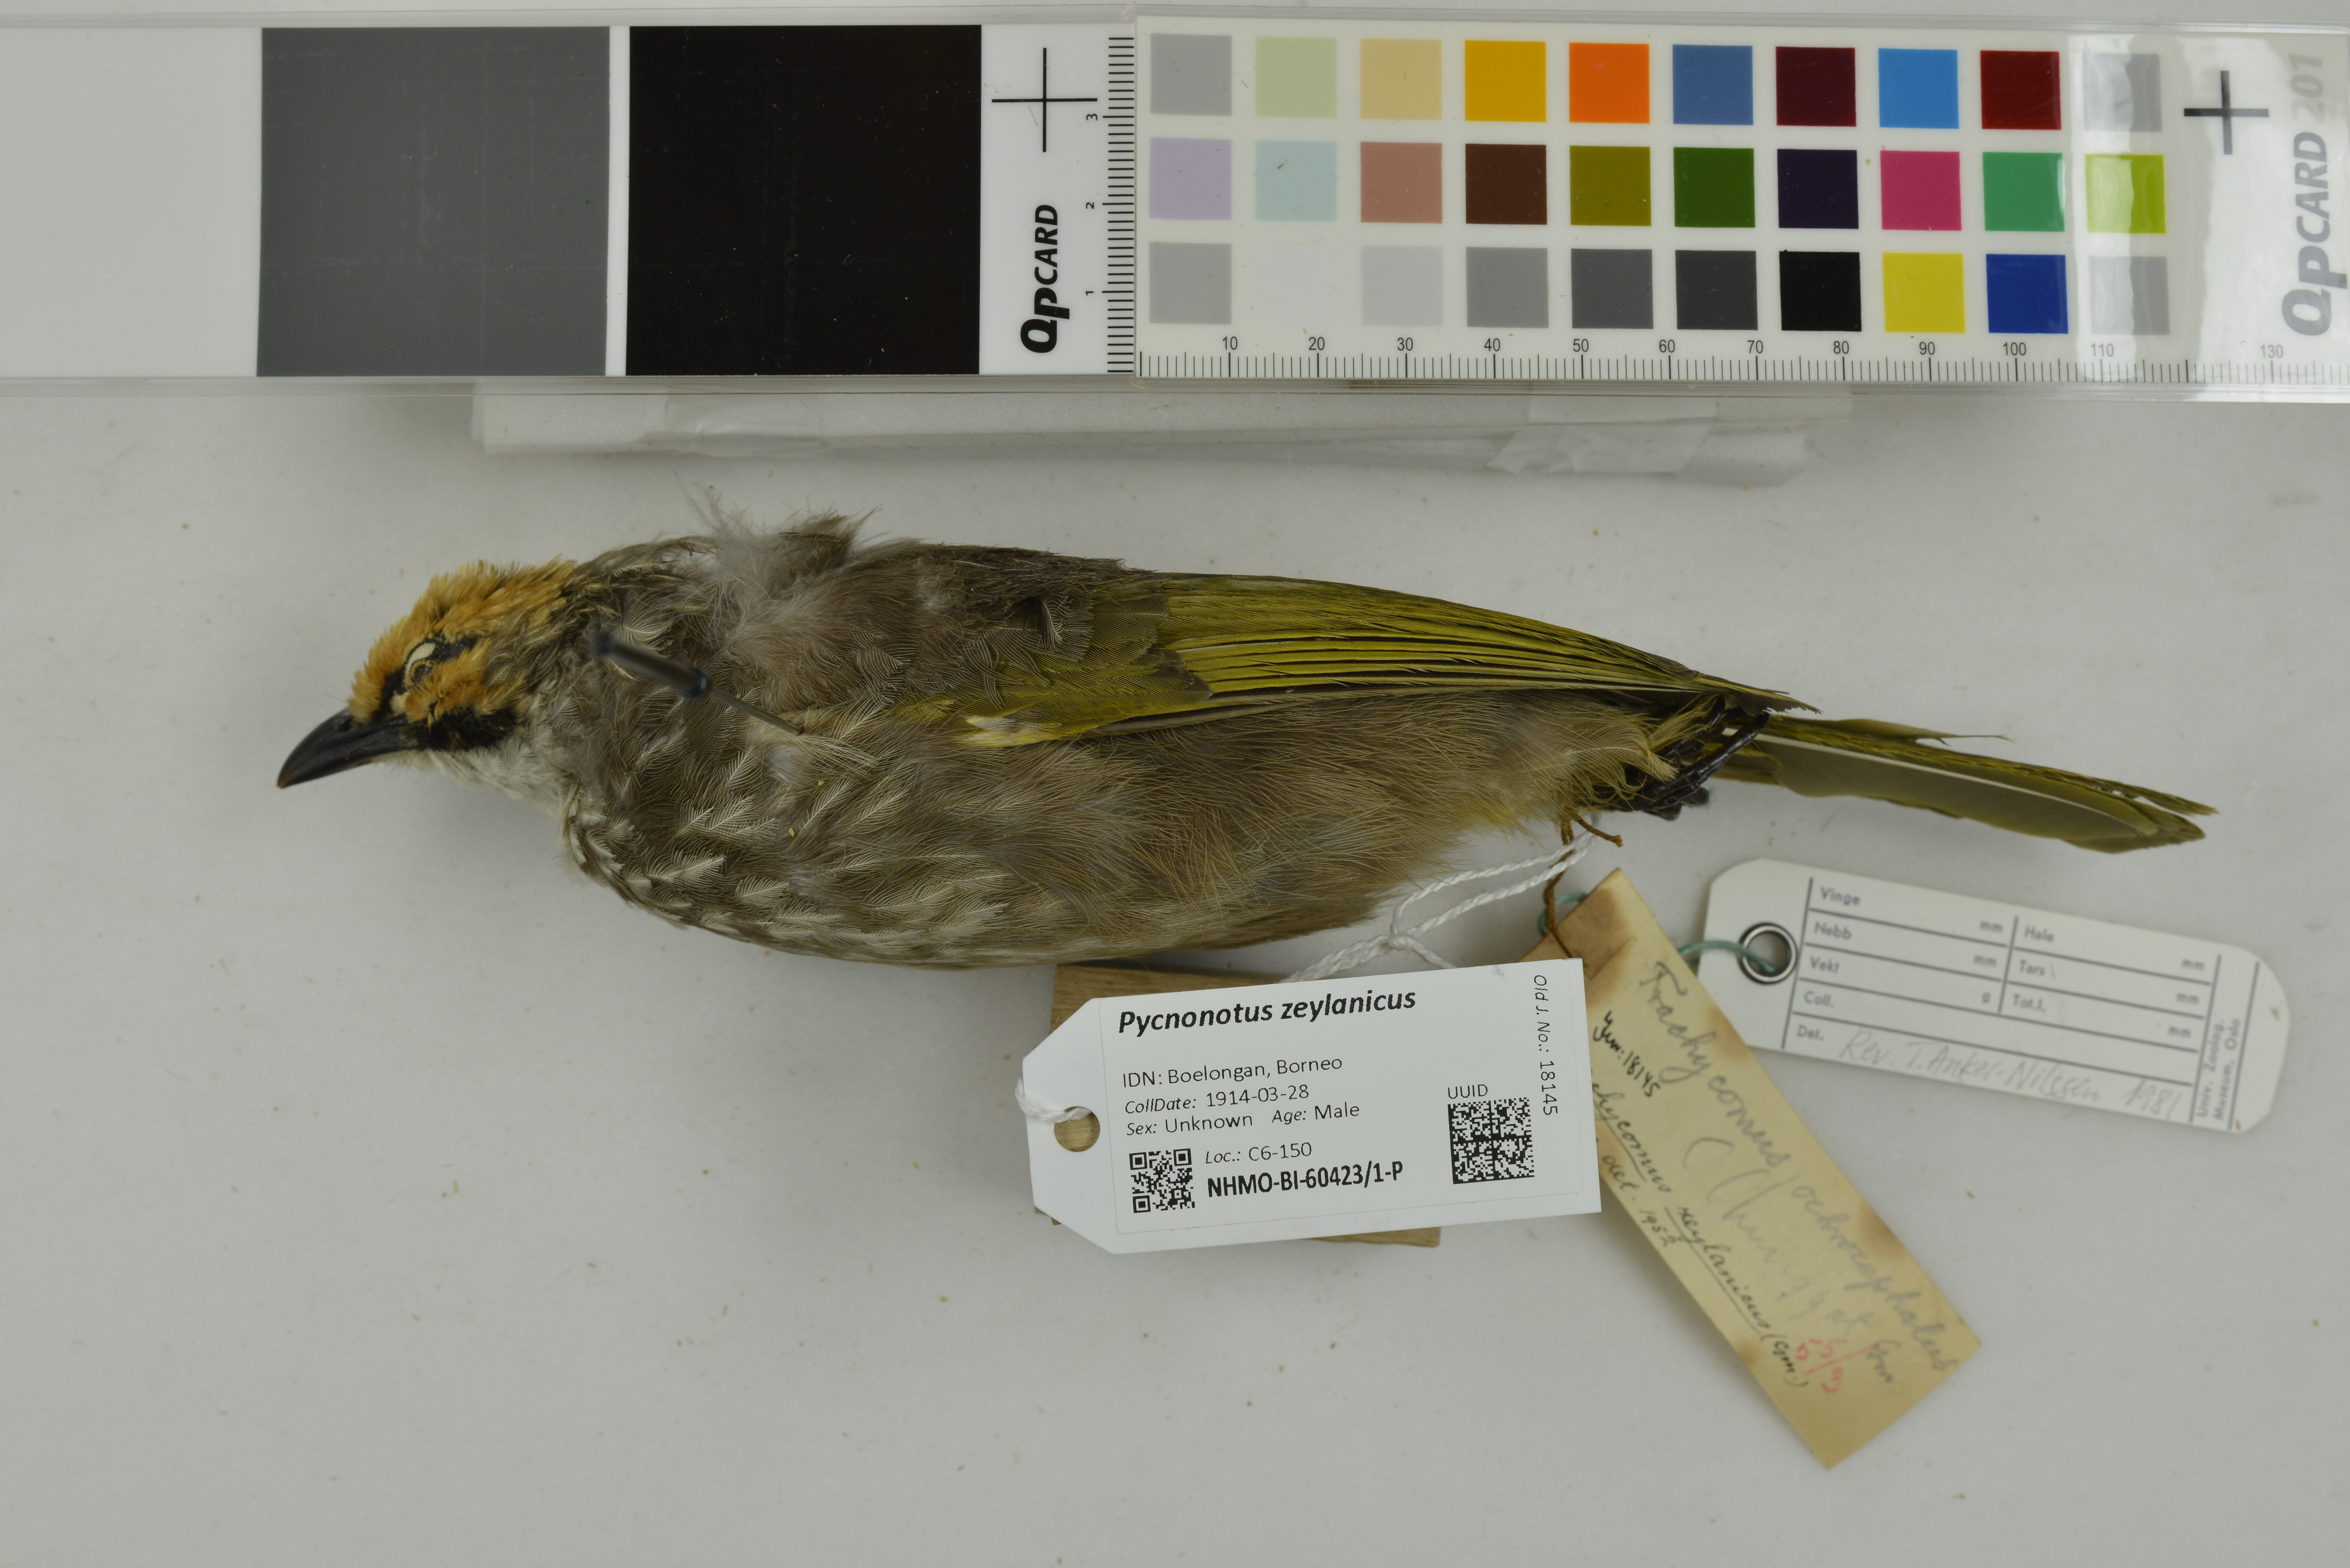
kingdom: Animalia
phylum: Chordata
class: Aves
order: Passeriformes
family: Pycnonotidae
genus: Pycnonotus
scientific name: Pycnonotus zeylanicus
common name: Straw-headed bulbul
